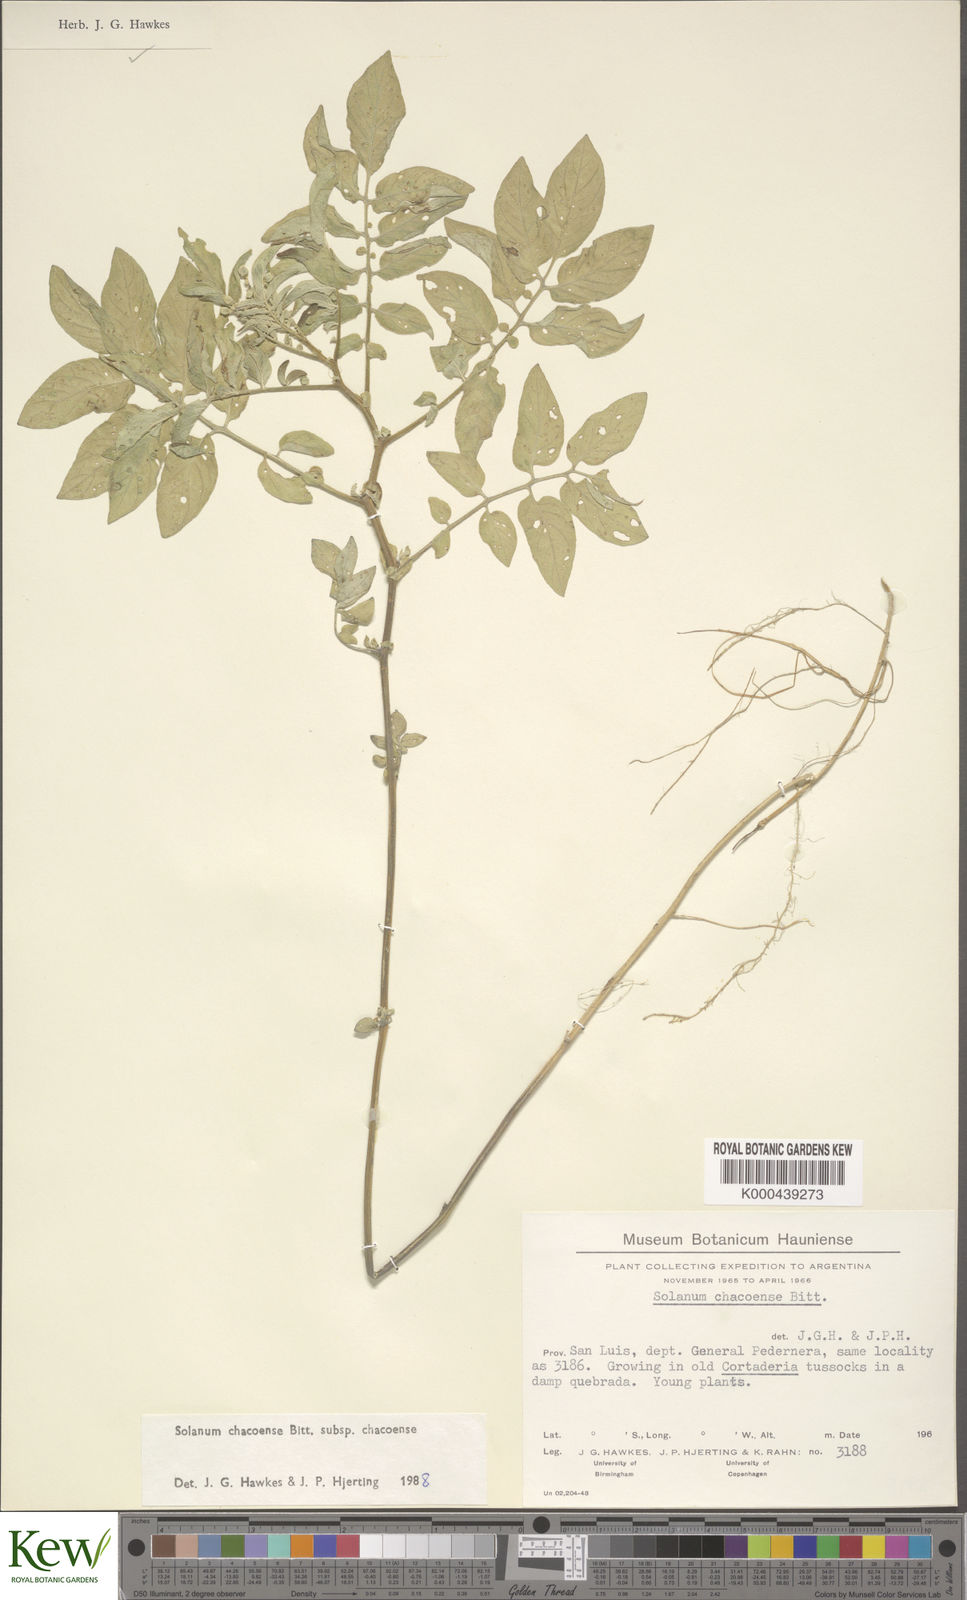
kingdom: Plantae
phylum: Tracheophyta
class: Magnoliopsida
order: Solanales
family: Solanaceae
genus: Solanum
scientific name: Solanum chacoense
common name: Chaco potato
